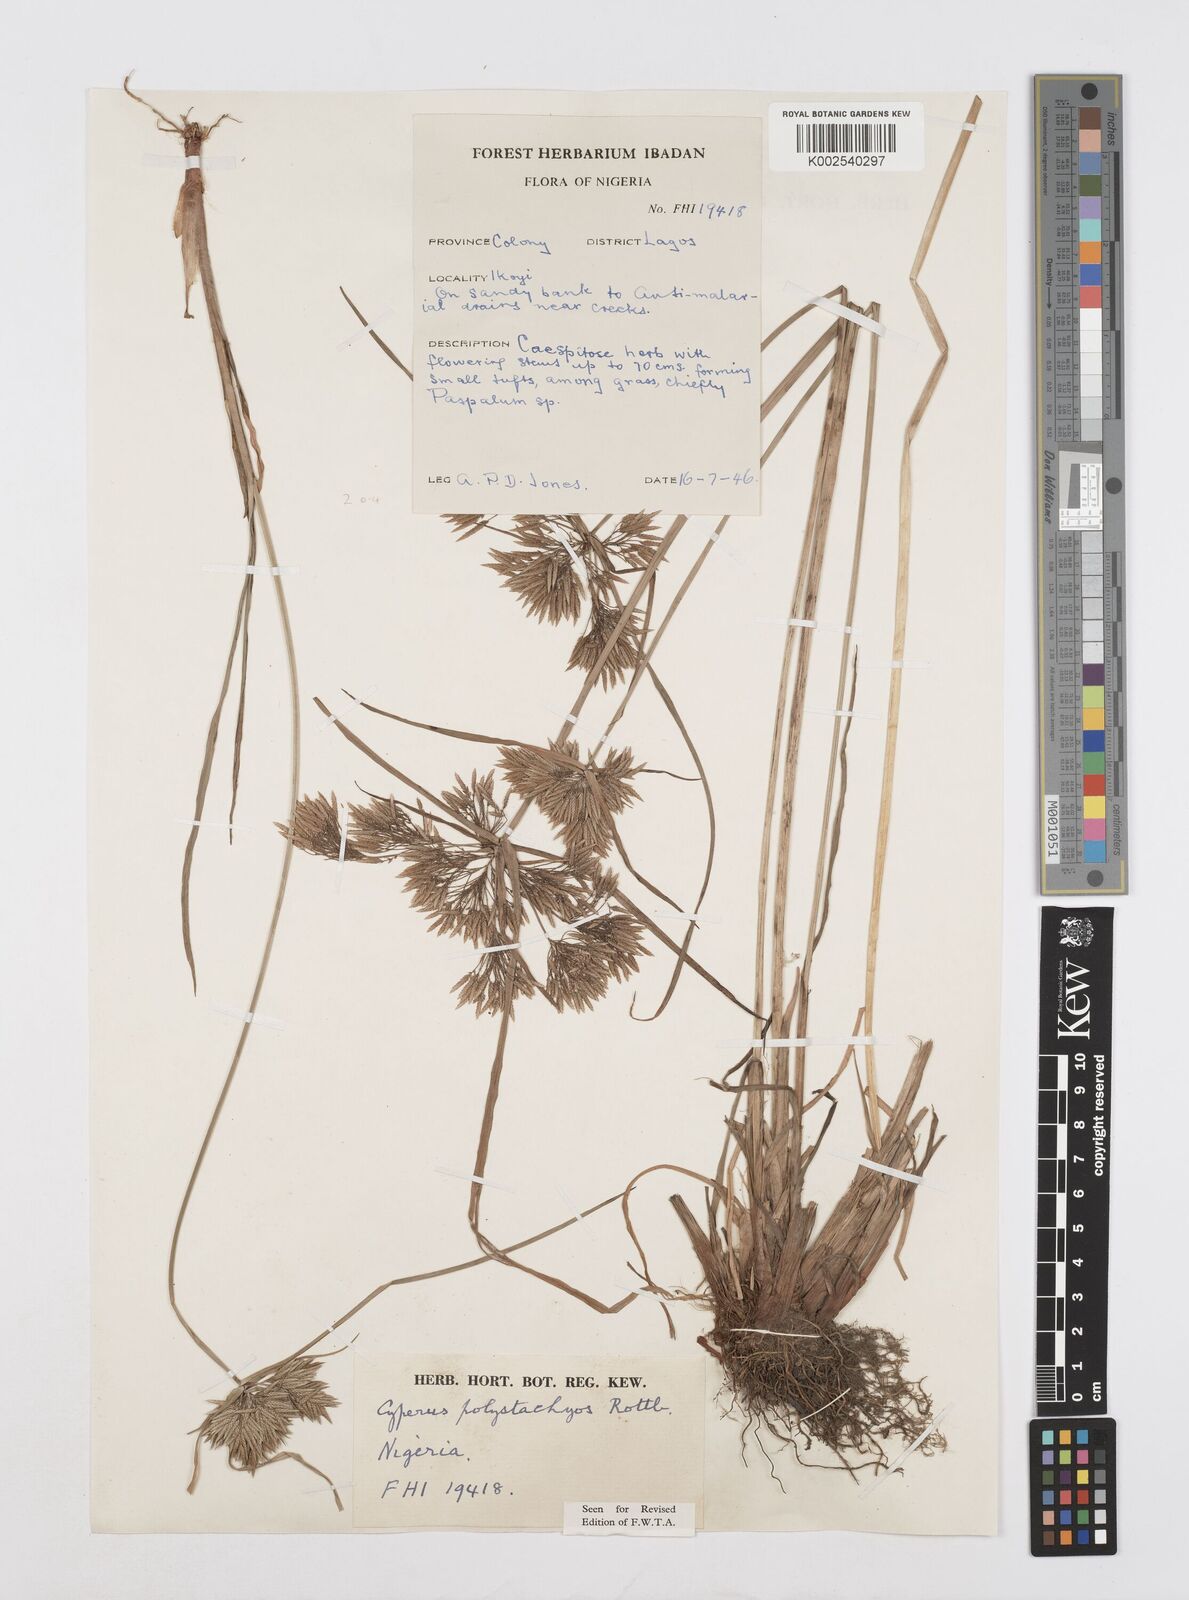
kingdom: Plantae
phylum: Tracheophyta
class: Liliopsida
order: Poales
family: Cyperaceae
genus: Cyperus
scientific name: Cyperus polystachyos
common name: Bunchy flat sedge
